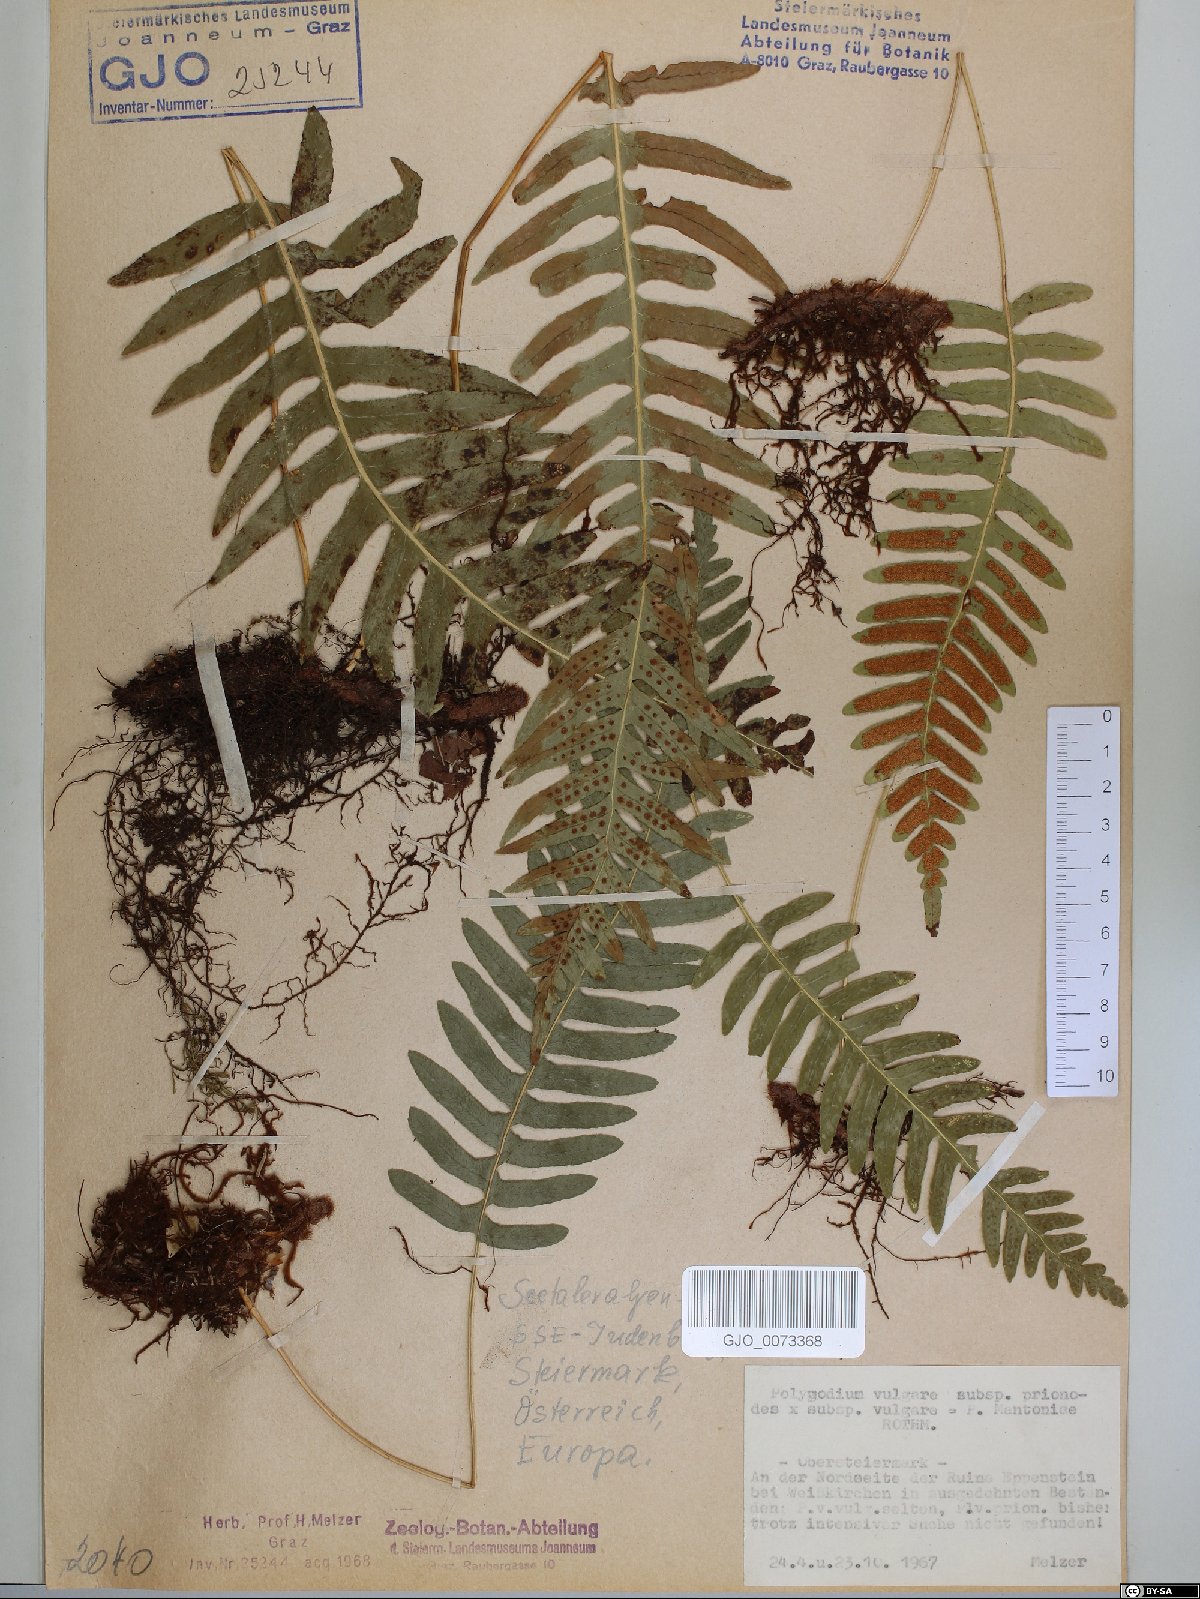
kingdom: Plantae
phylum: Tracheophyta
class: Polypodiopsida
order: Polypodiales
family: Polypodiaceae
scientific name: Polypodiaceae
